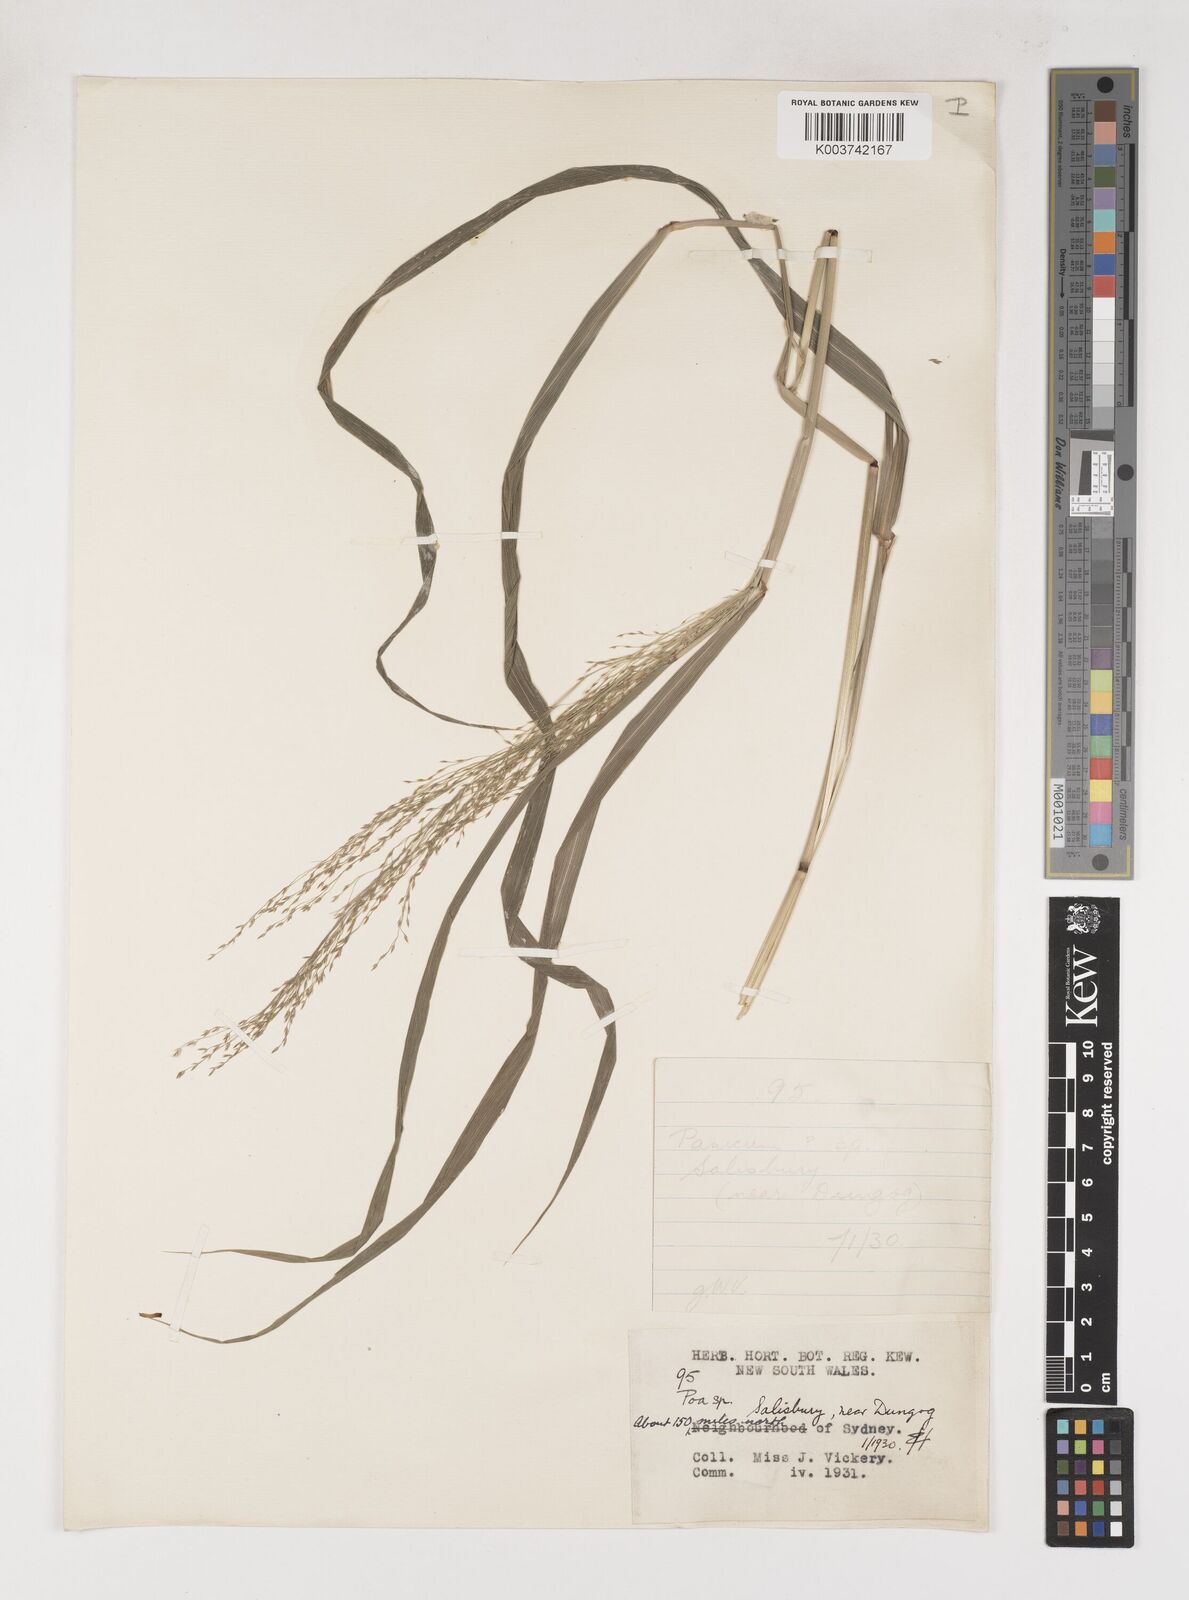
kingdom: Plantae
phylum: Tracheophyta
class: Liliopsida
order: Poales
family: Poaceae
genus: Sylvipoa
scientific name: Sylvipoa queenslandica
